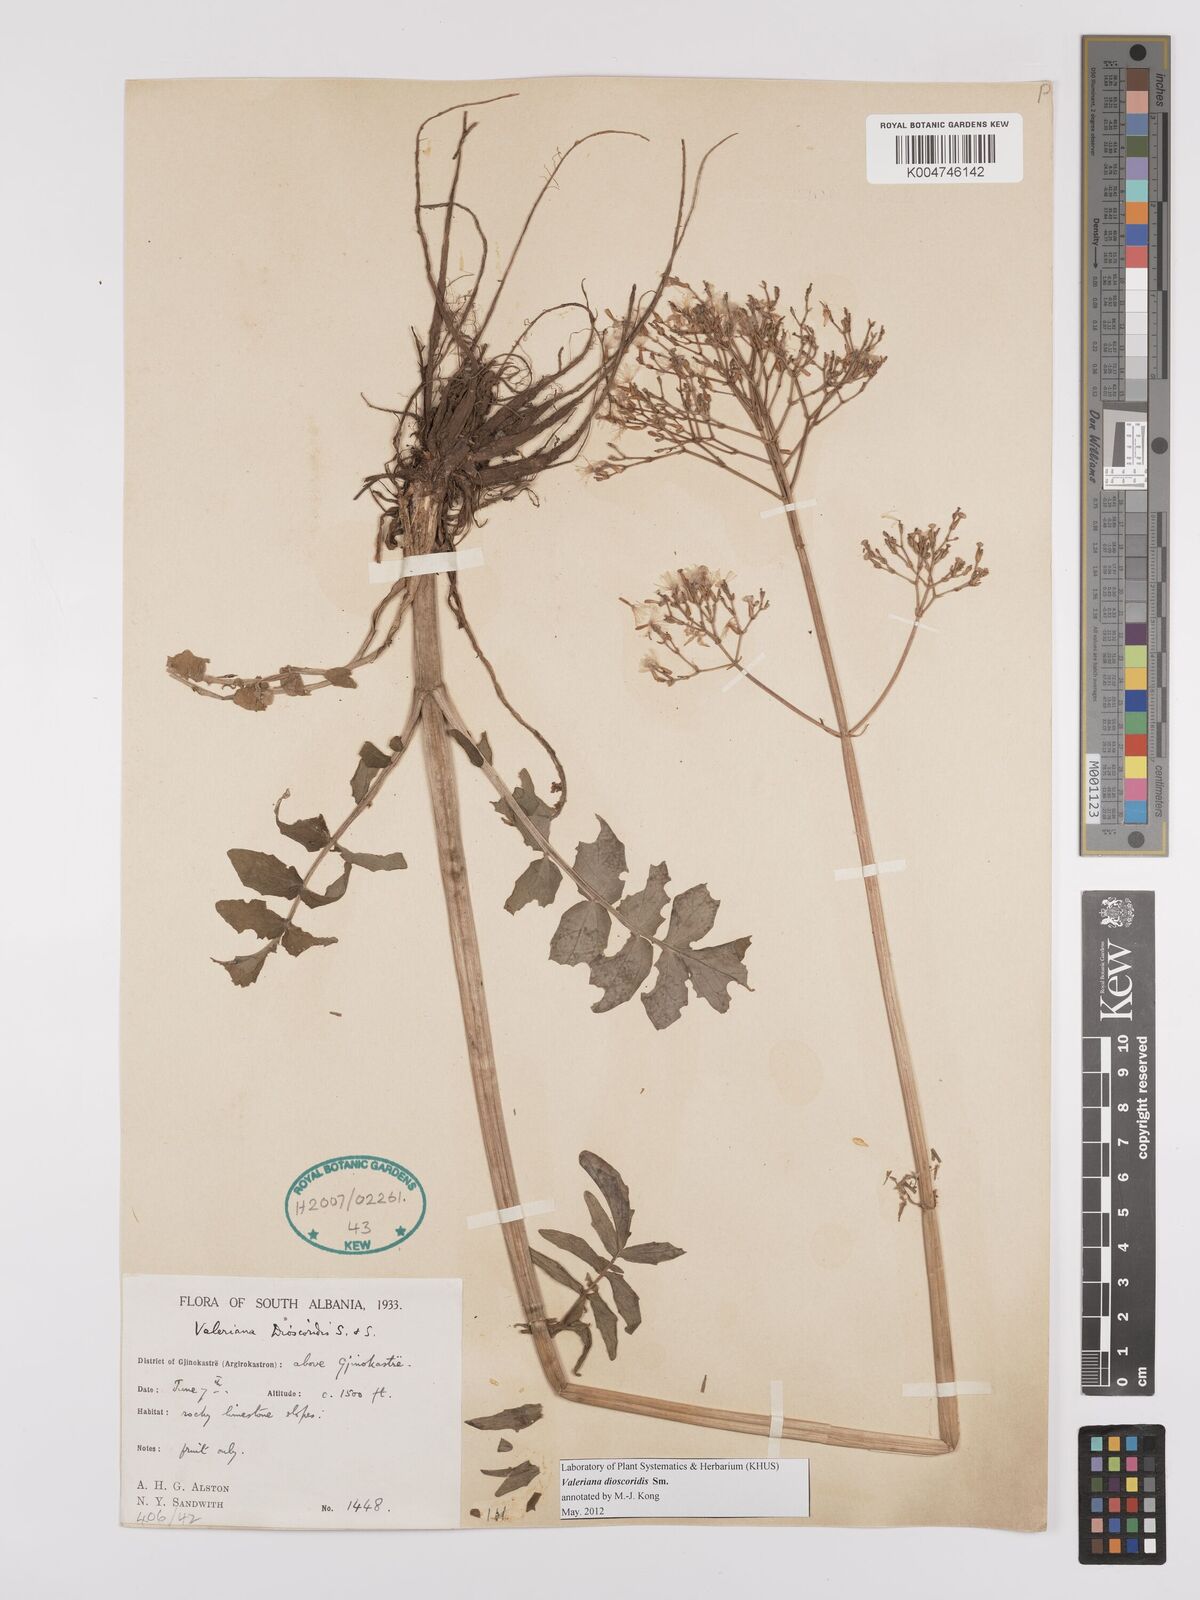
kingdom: Plantae
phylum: Tracheophyta
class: Magnoliopsida
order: Dipsacales
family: Caprifoliaceae
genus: Valeriana
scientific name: Valeriana dioscoridis
